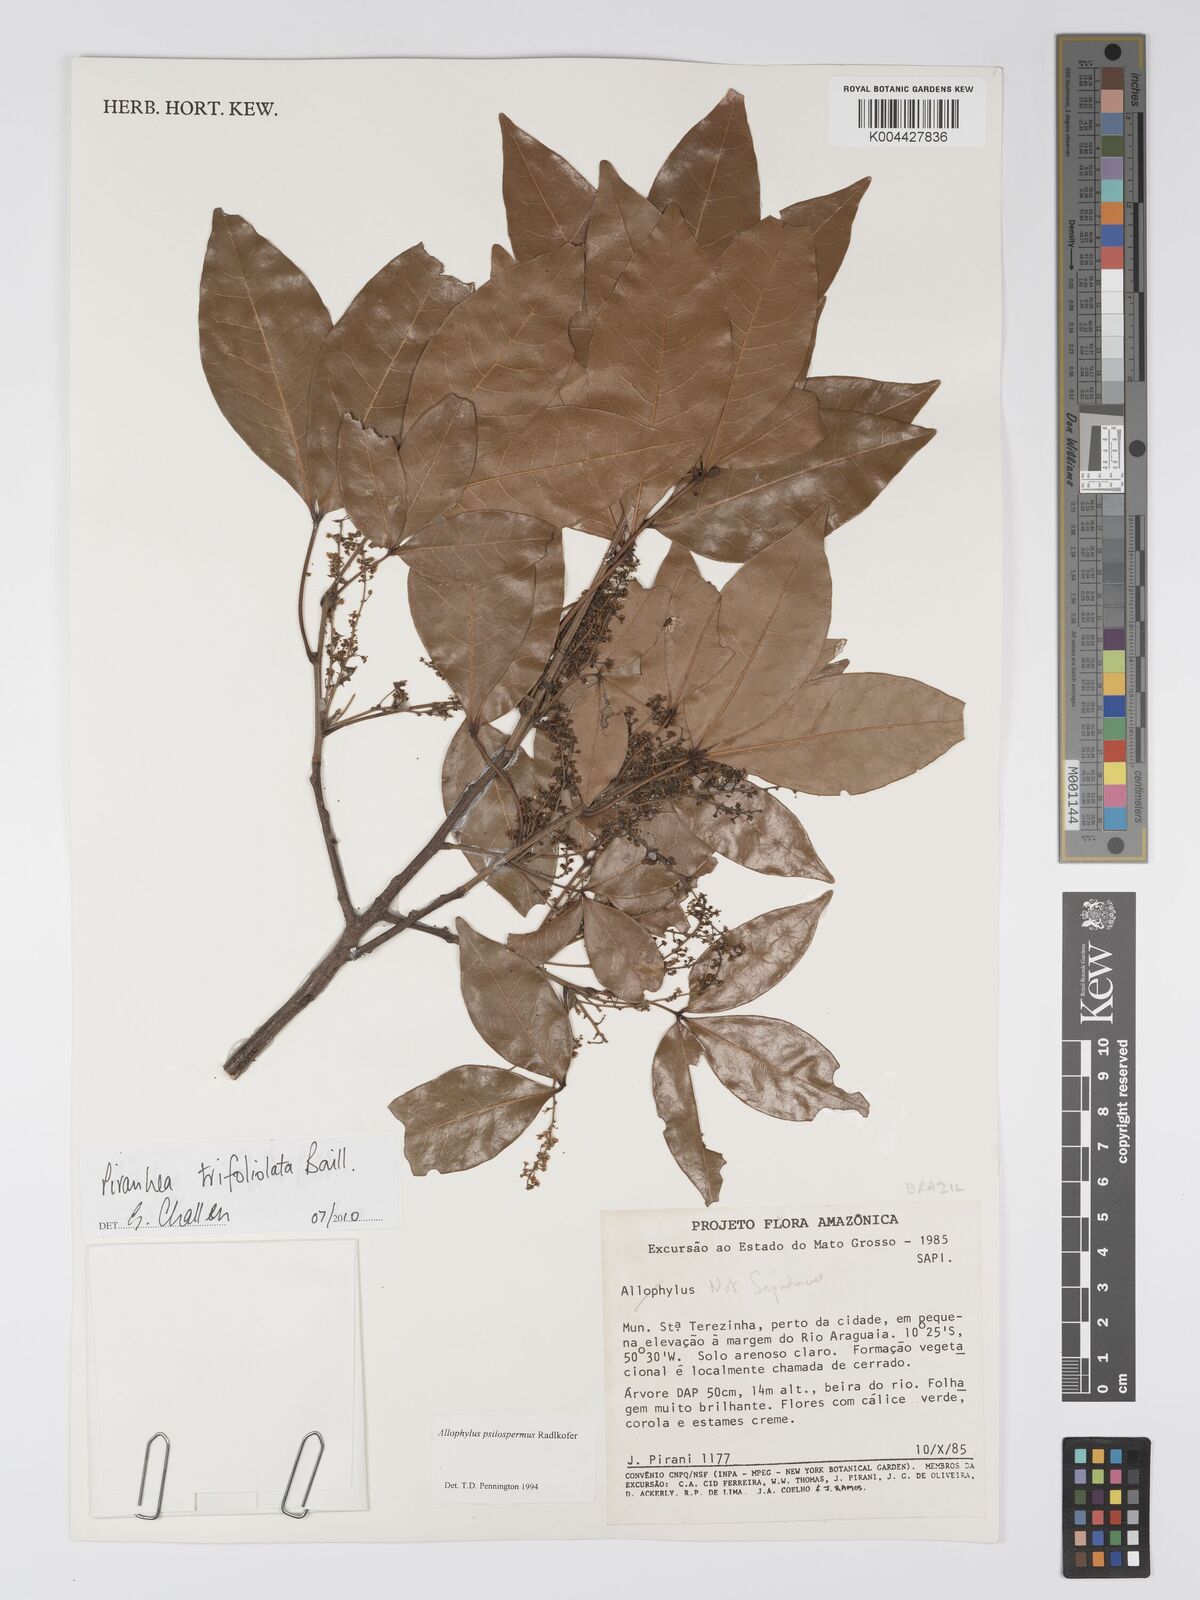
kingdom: Plantae
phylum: Tracheophyta
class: Magnoliopsida
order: Malpighiales
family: Picrodendraceae
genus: Piranhea
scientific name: Piranhea trifoliolata
